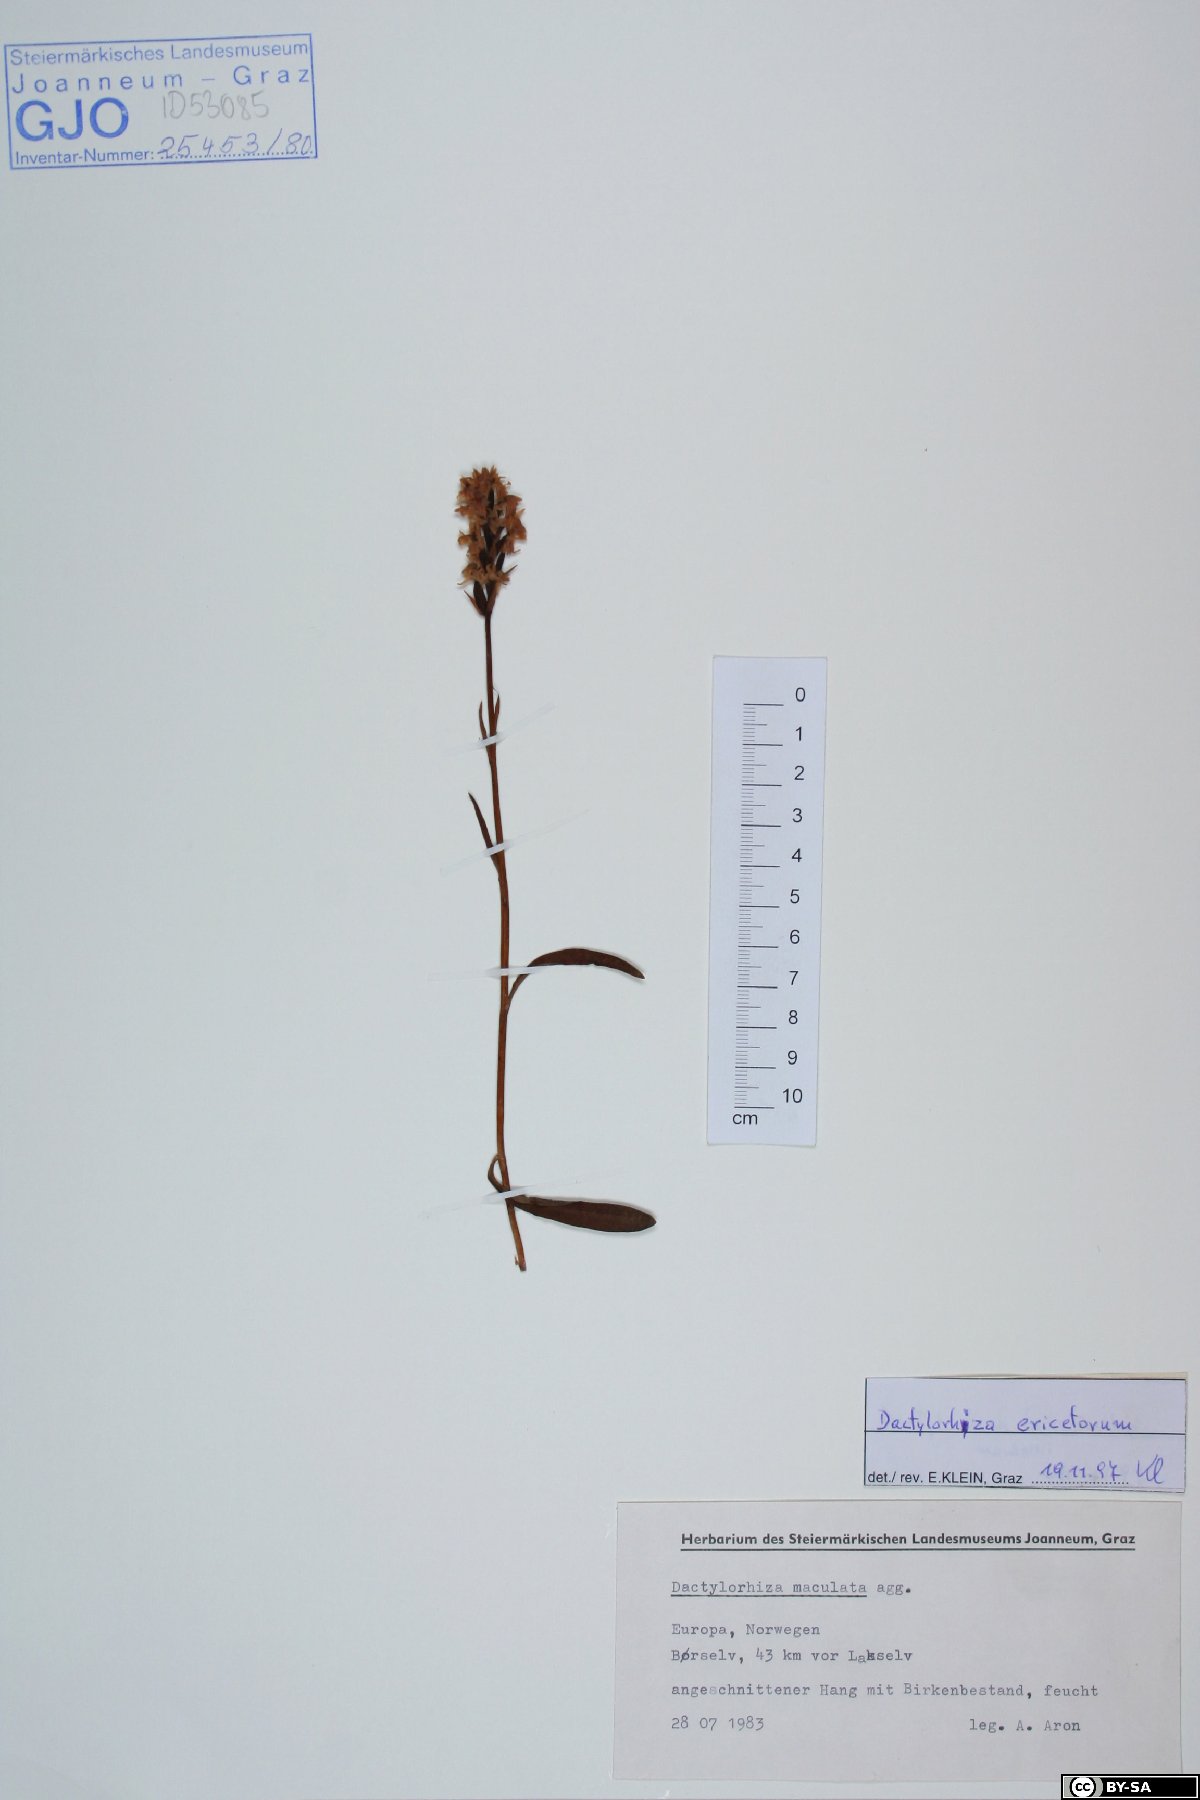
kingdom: Plantae
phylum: Tracheophyta
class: Liliopsida
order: Asparagales
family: Orchidaceae
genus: Dactylorhiza
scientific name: Dactylorhiza maculata
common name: Heath spotted-orchid
